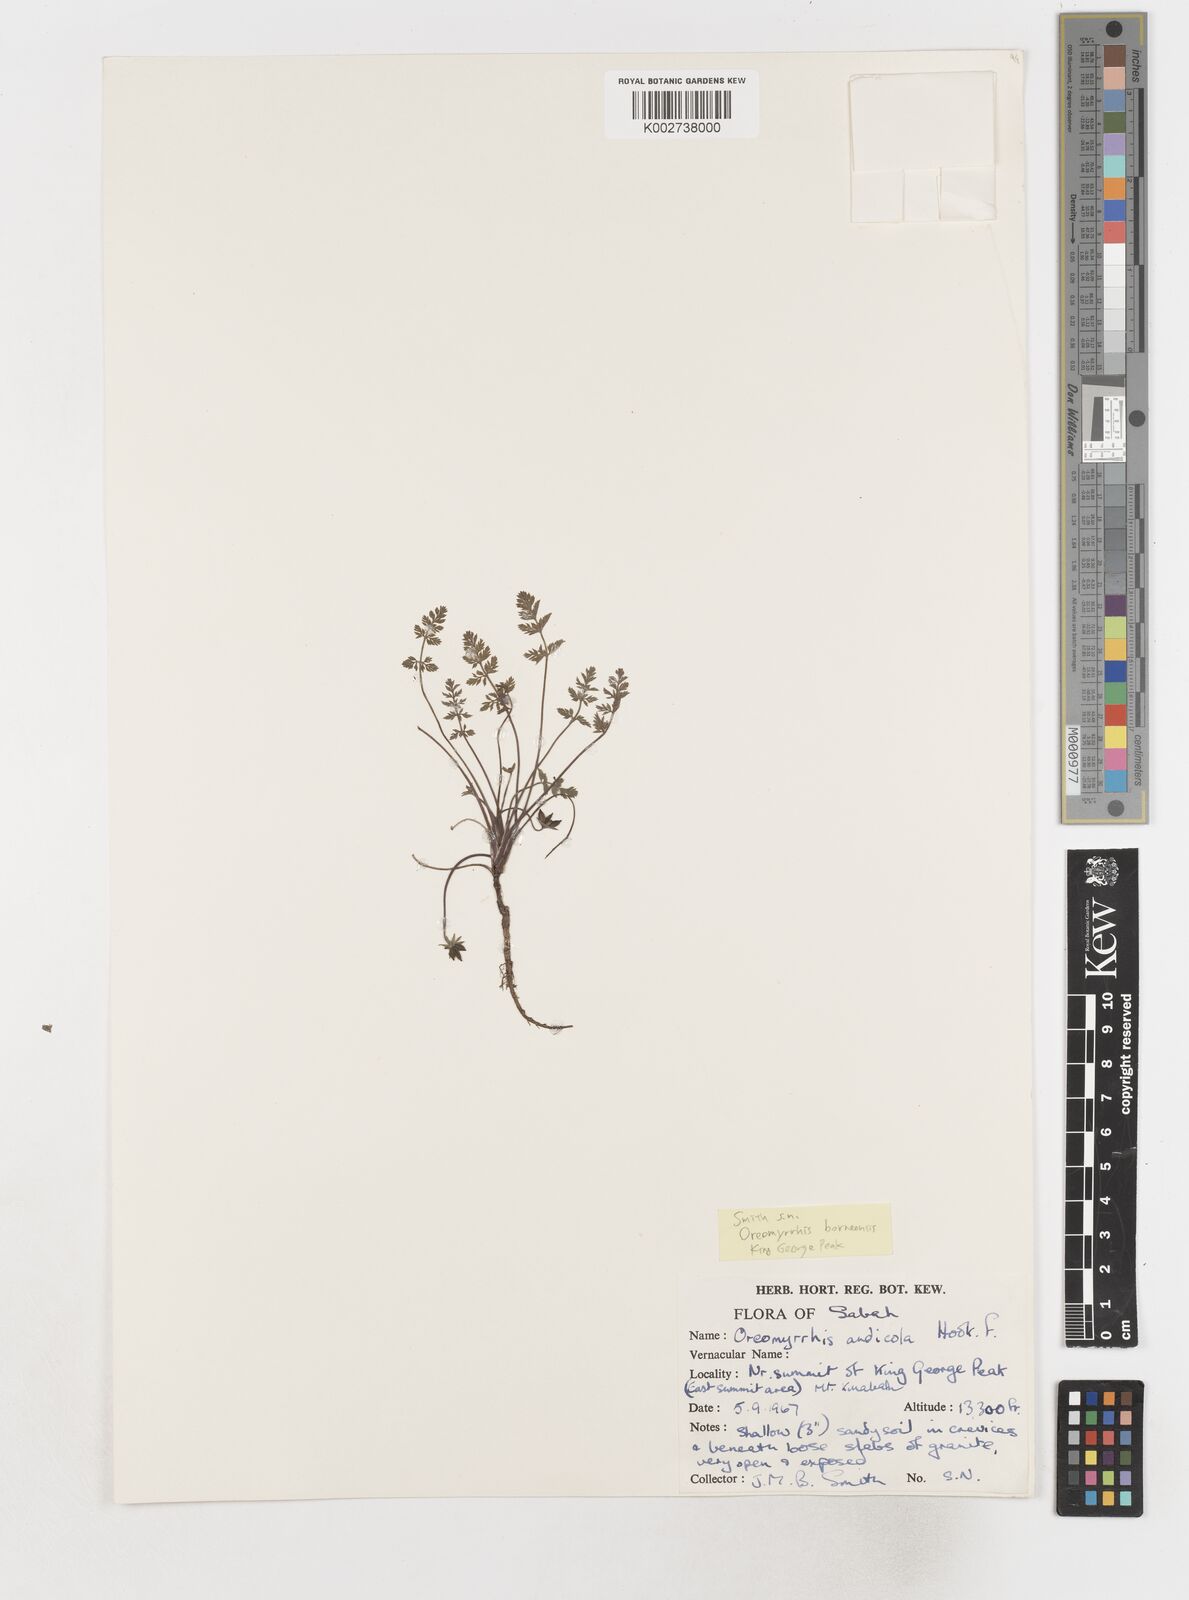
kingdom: Plantae
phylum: Tracheophyta
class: Magnoliopsida
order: Apiales
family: Apiaceae
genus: Chaerophyllum
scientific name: Chaerophyllum andicola
